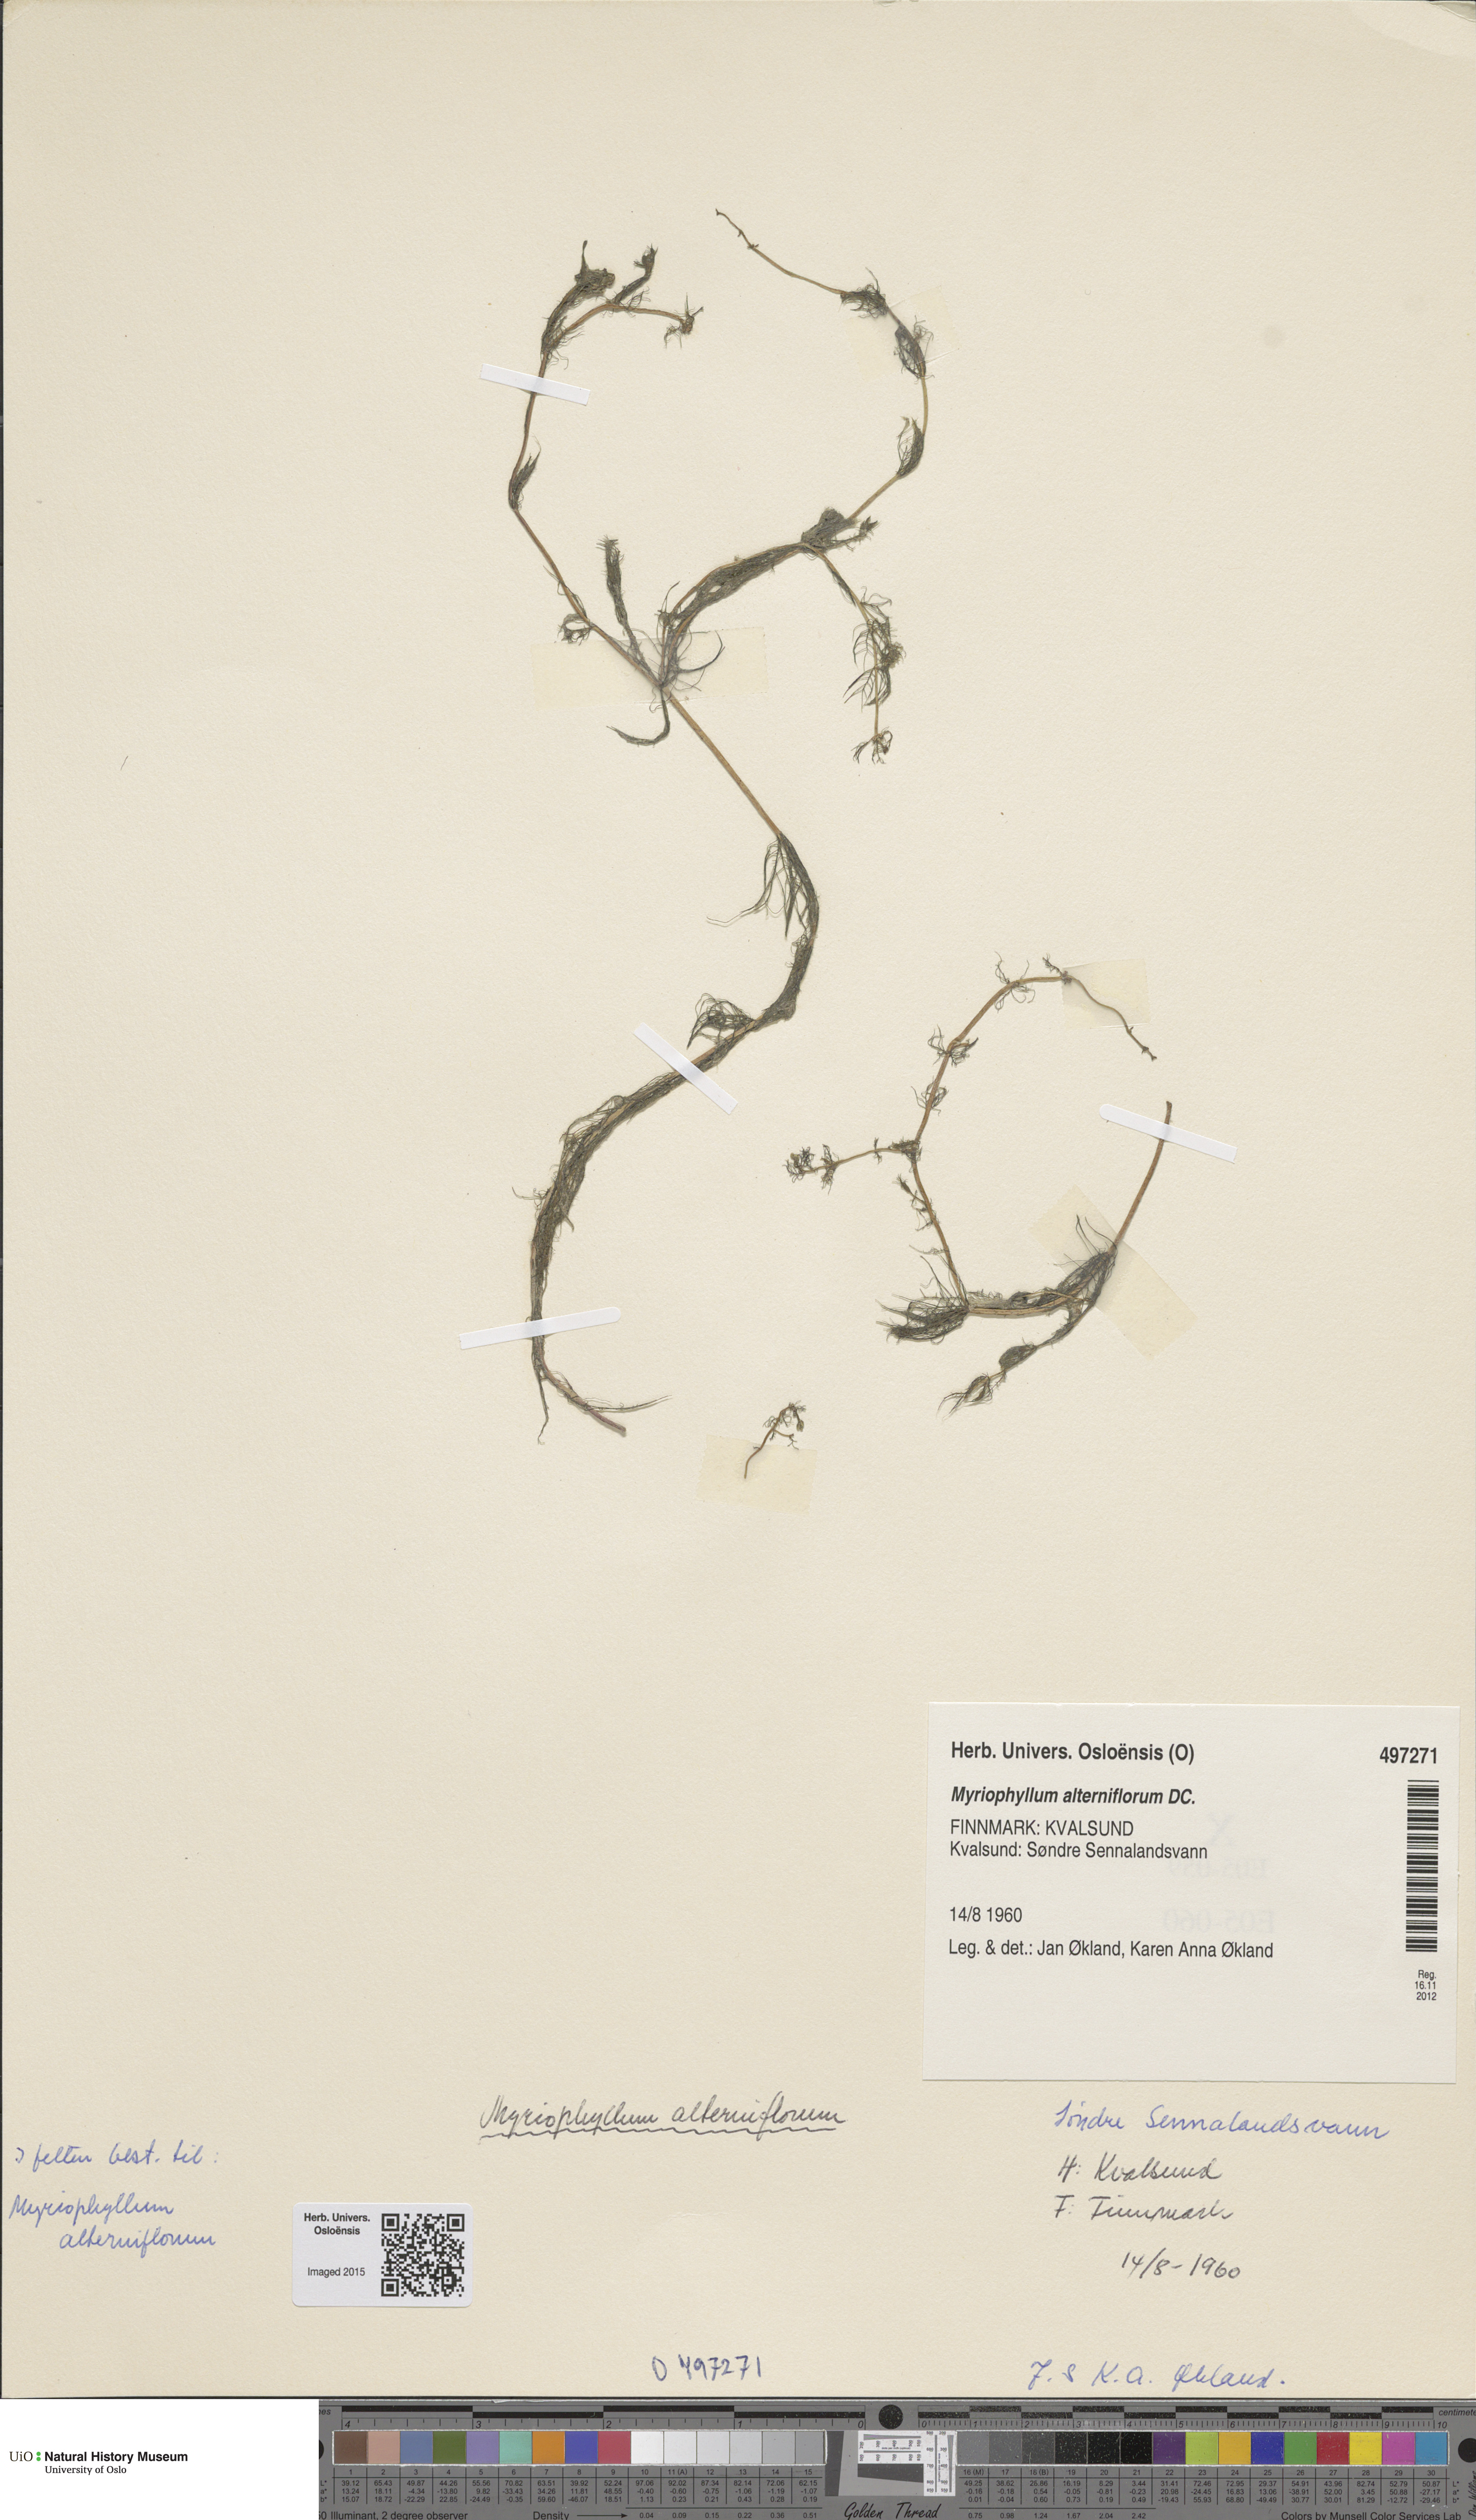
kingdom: Plantae
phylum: Tracheophyta
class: Magnoliopsida
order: Saxifragales
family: Haloragaceae
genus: Myriophyllum
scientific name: Myriophyllum alterniflorum
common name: Alternate water-milfoil
